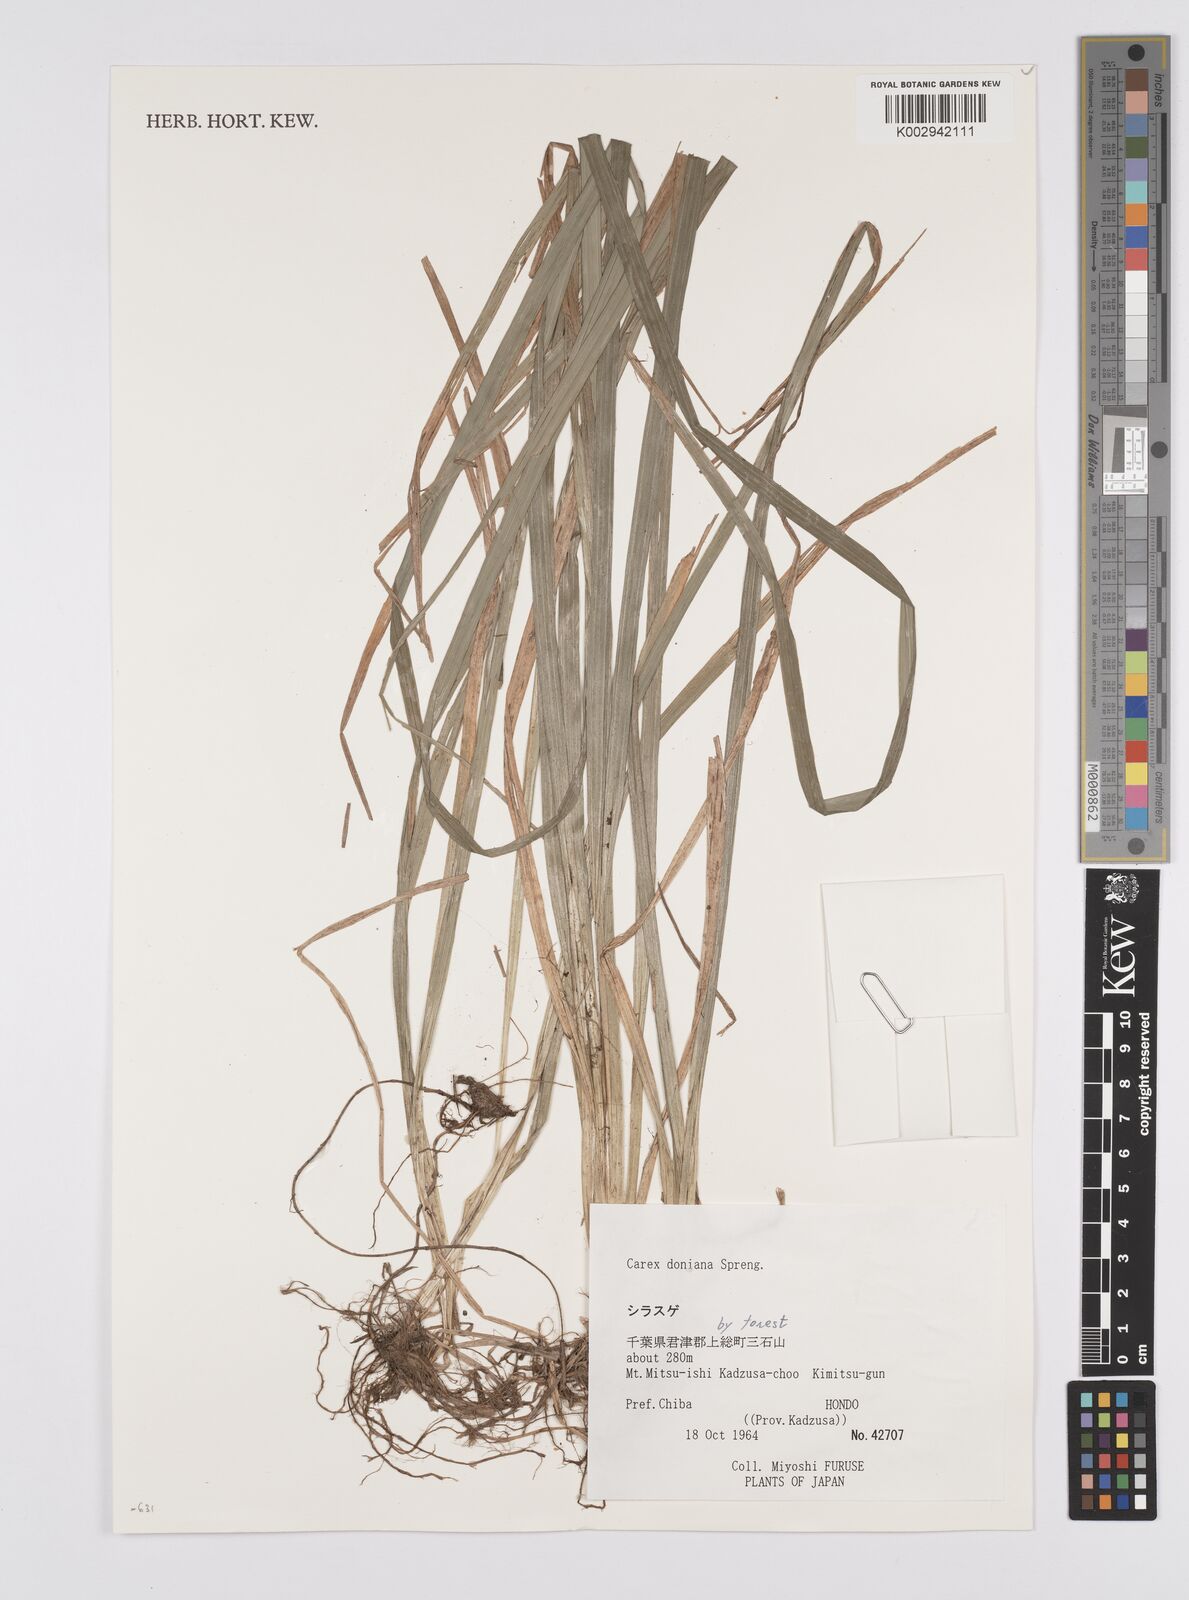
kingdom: Plantae
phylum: Tracheophyta
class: Liliopsida
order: Poales
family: Cyperaceae
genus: Carex
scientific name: Carex japonica
